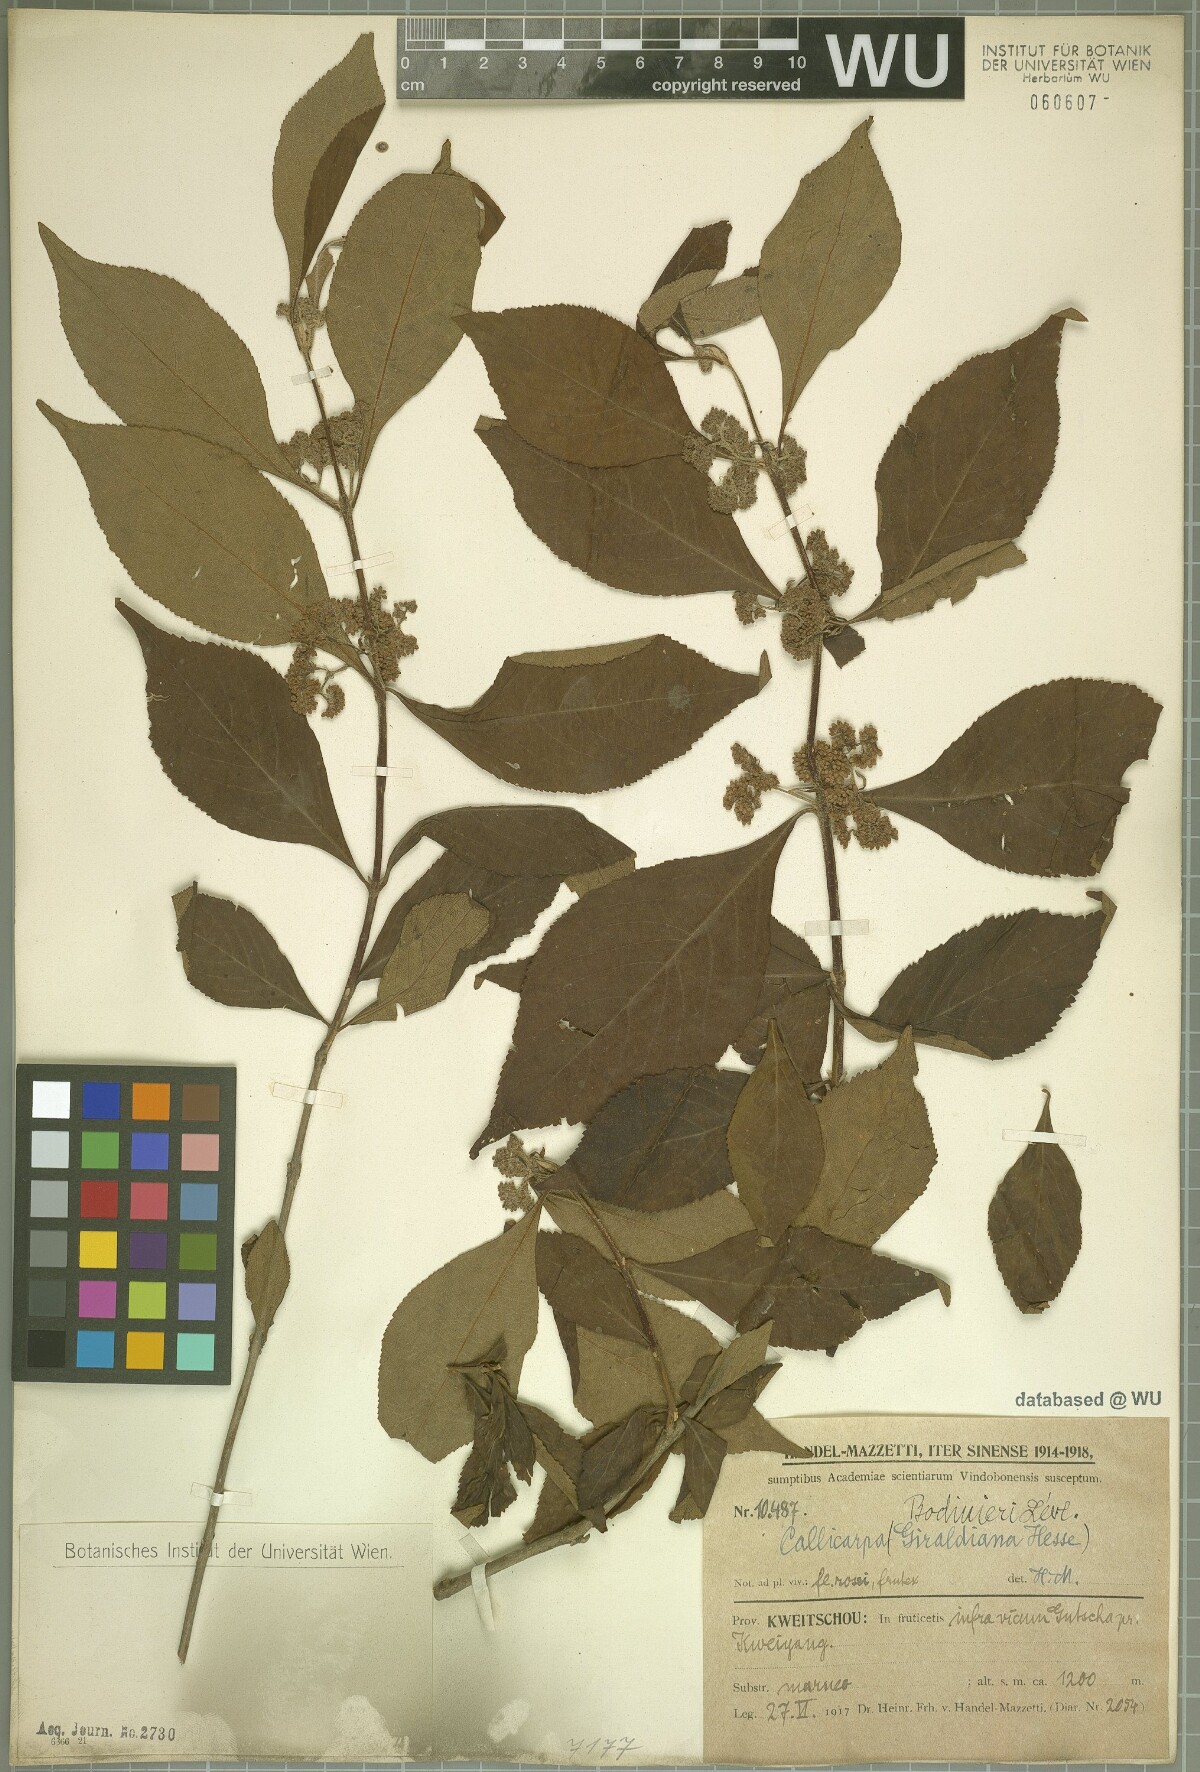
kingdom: Plantae
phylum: Tracheophyta
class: Magnoliopsida
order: Lamiales
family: Lamiaceae
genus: Callicarpa
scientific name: Callicarpa bodinieri
